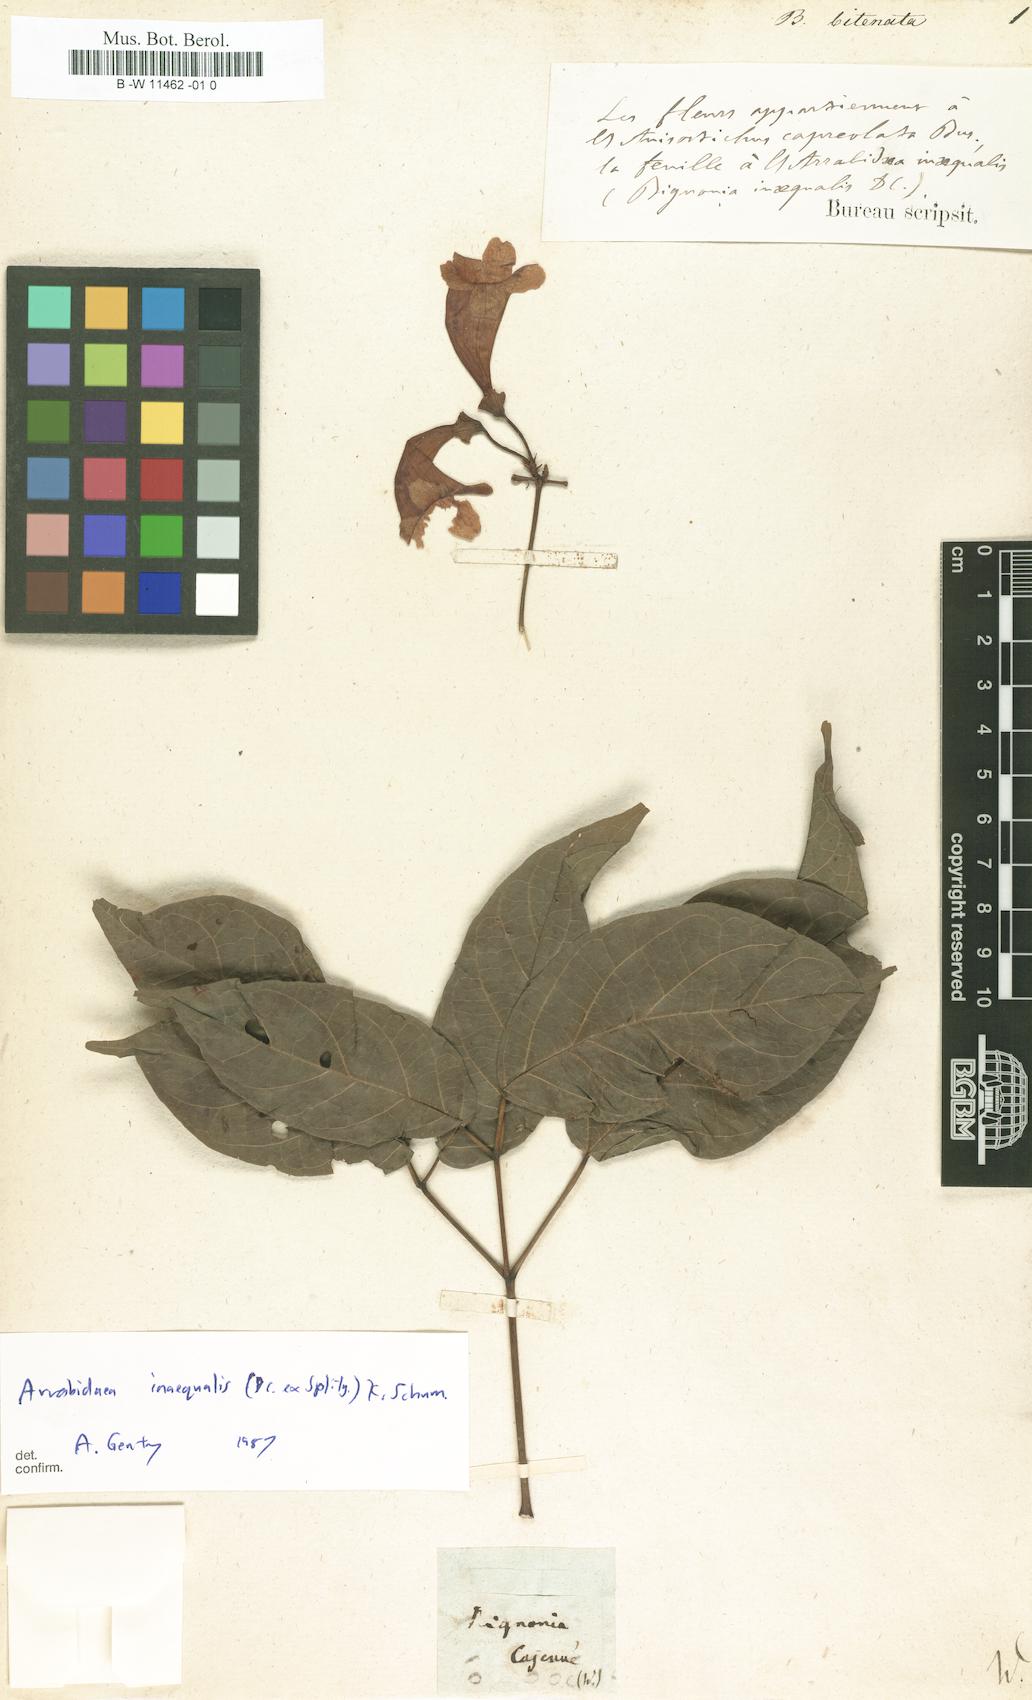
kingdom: Plantae
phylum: Tracheophyta
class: Magnoliopsida
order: Lamiales
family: Bignoniaceae
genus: Bignonia
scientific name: Bignonia
